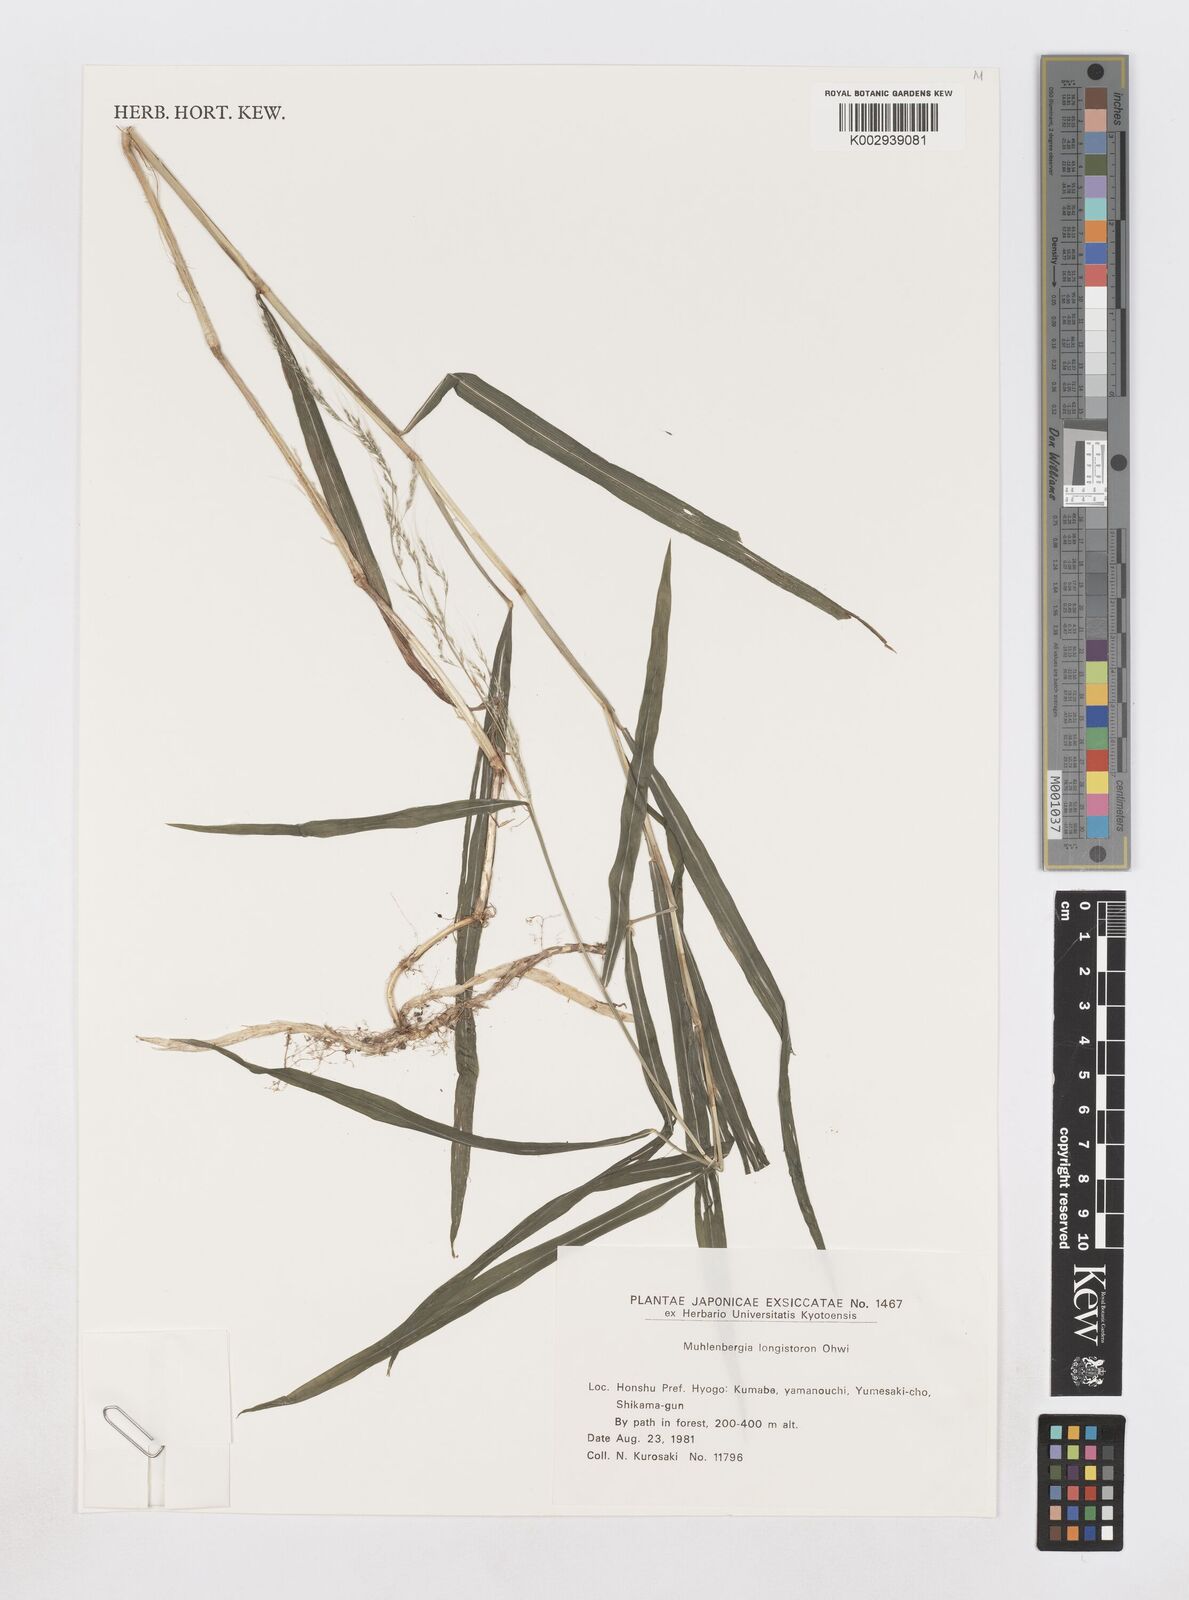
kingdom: Plantae
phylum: Tracheophyta
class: Liliopsida
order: Poales
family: Poaceae
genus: Muhlenbergia
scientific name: Muhlenbergia huegelii
